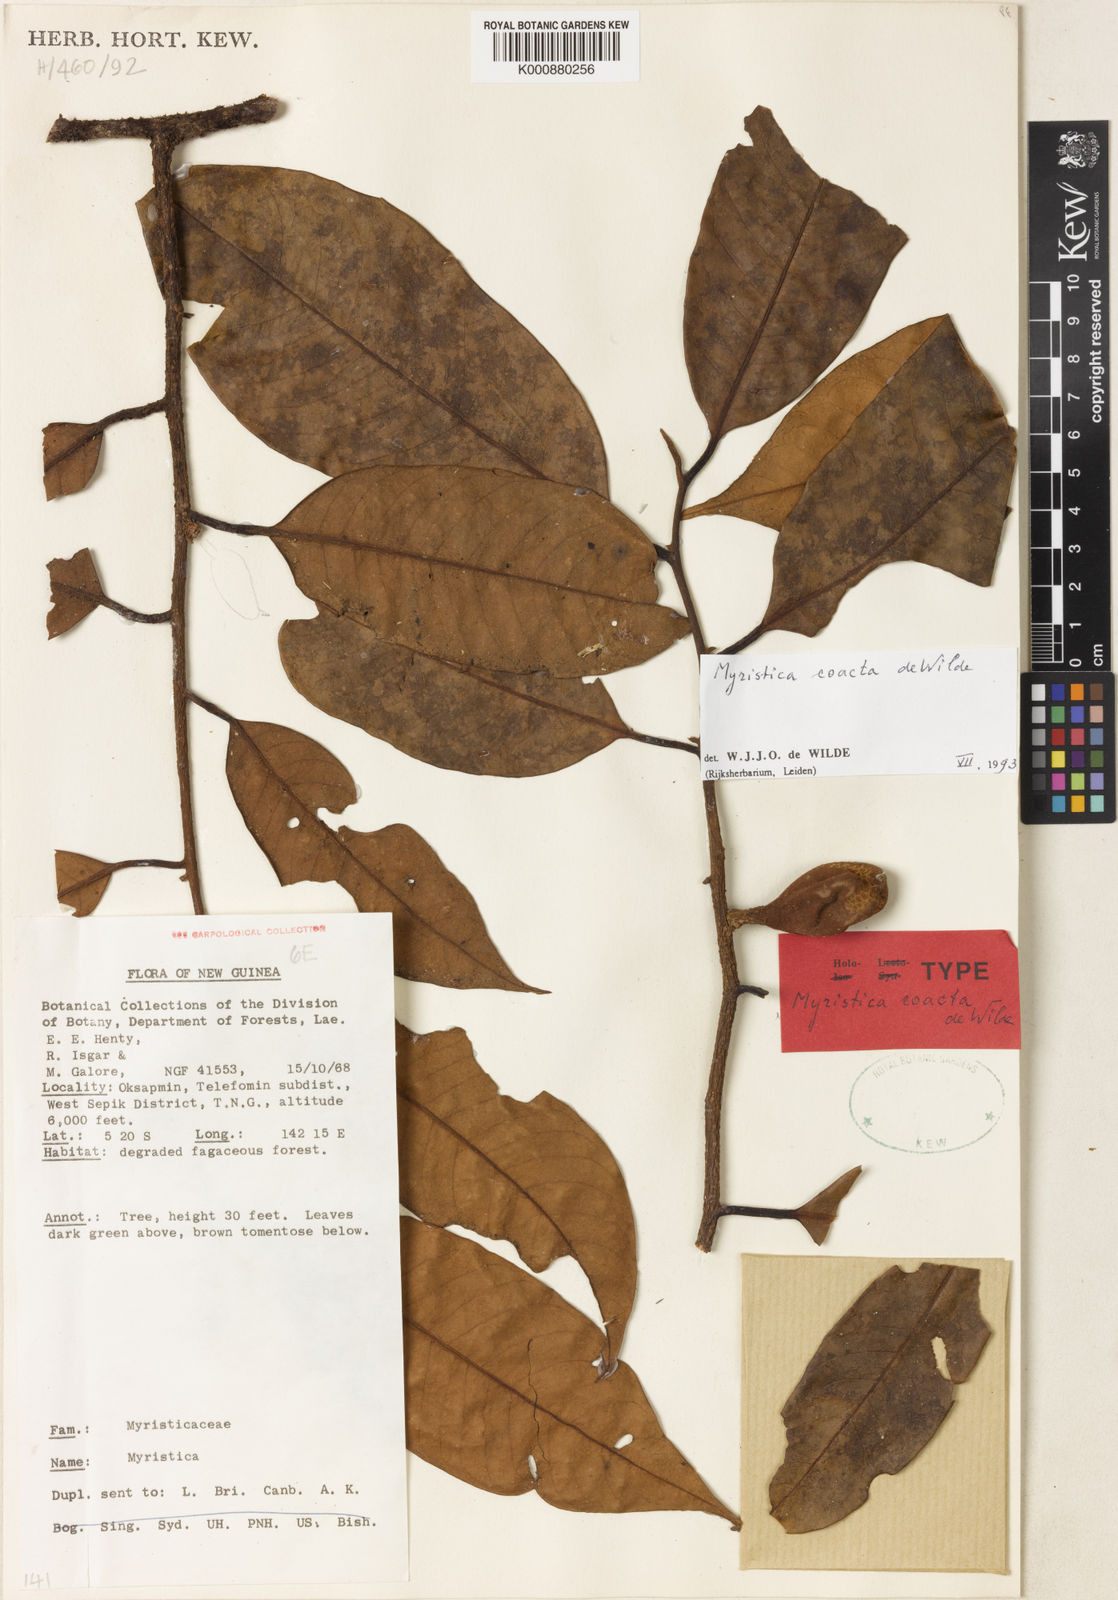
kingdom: Plantae
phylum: Tracheophyta
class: Magnoliopsida
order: Magnoliales
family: Myristicaceae
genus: Myristica
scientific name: Myristica coacta
